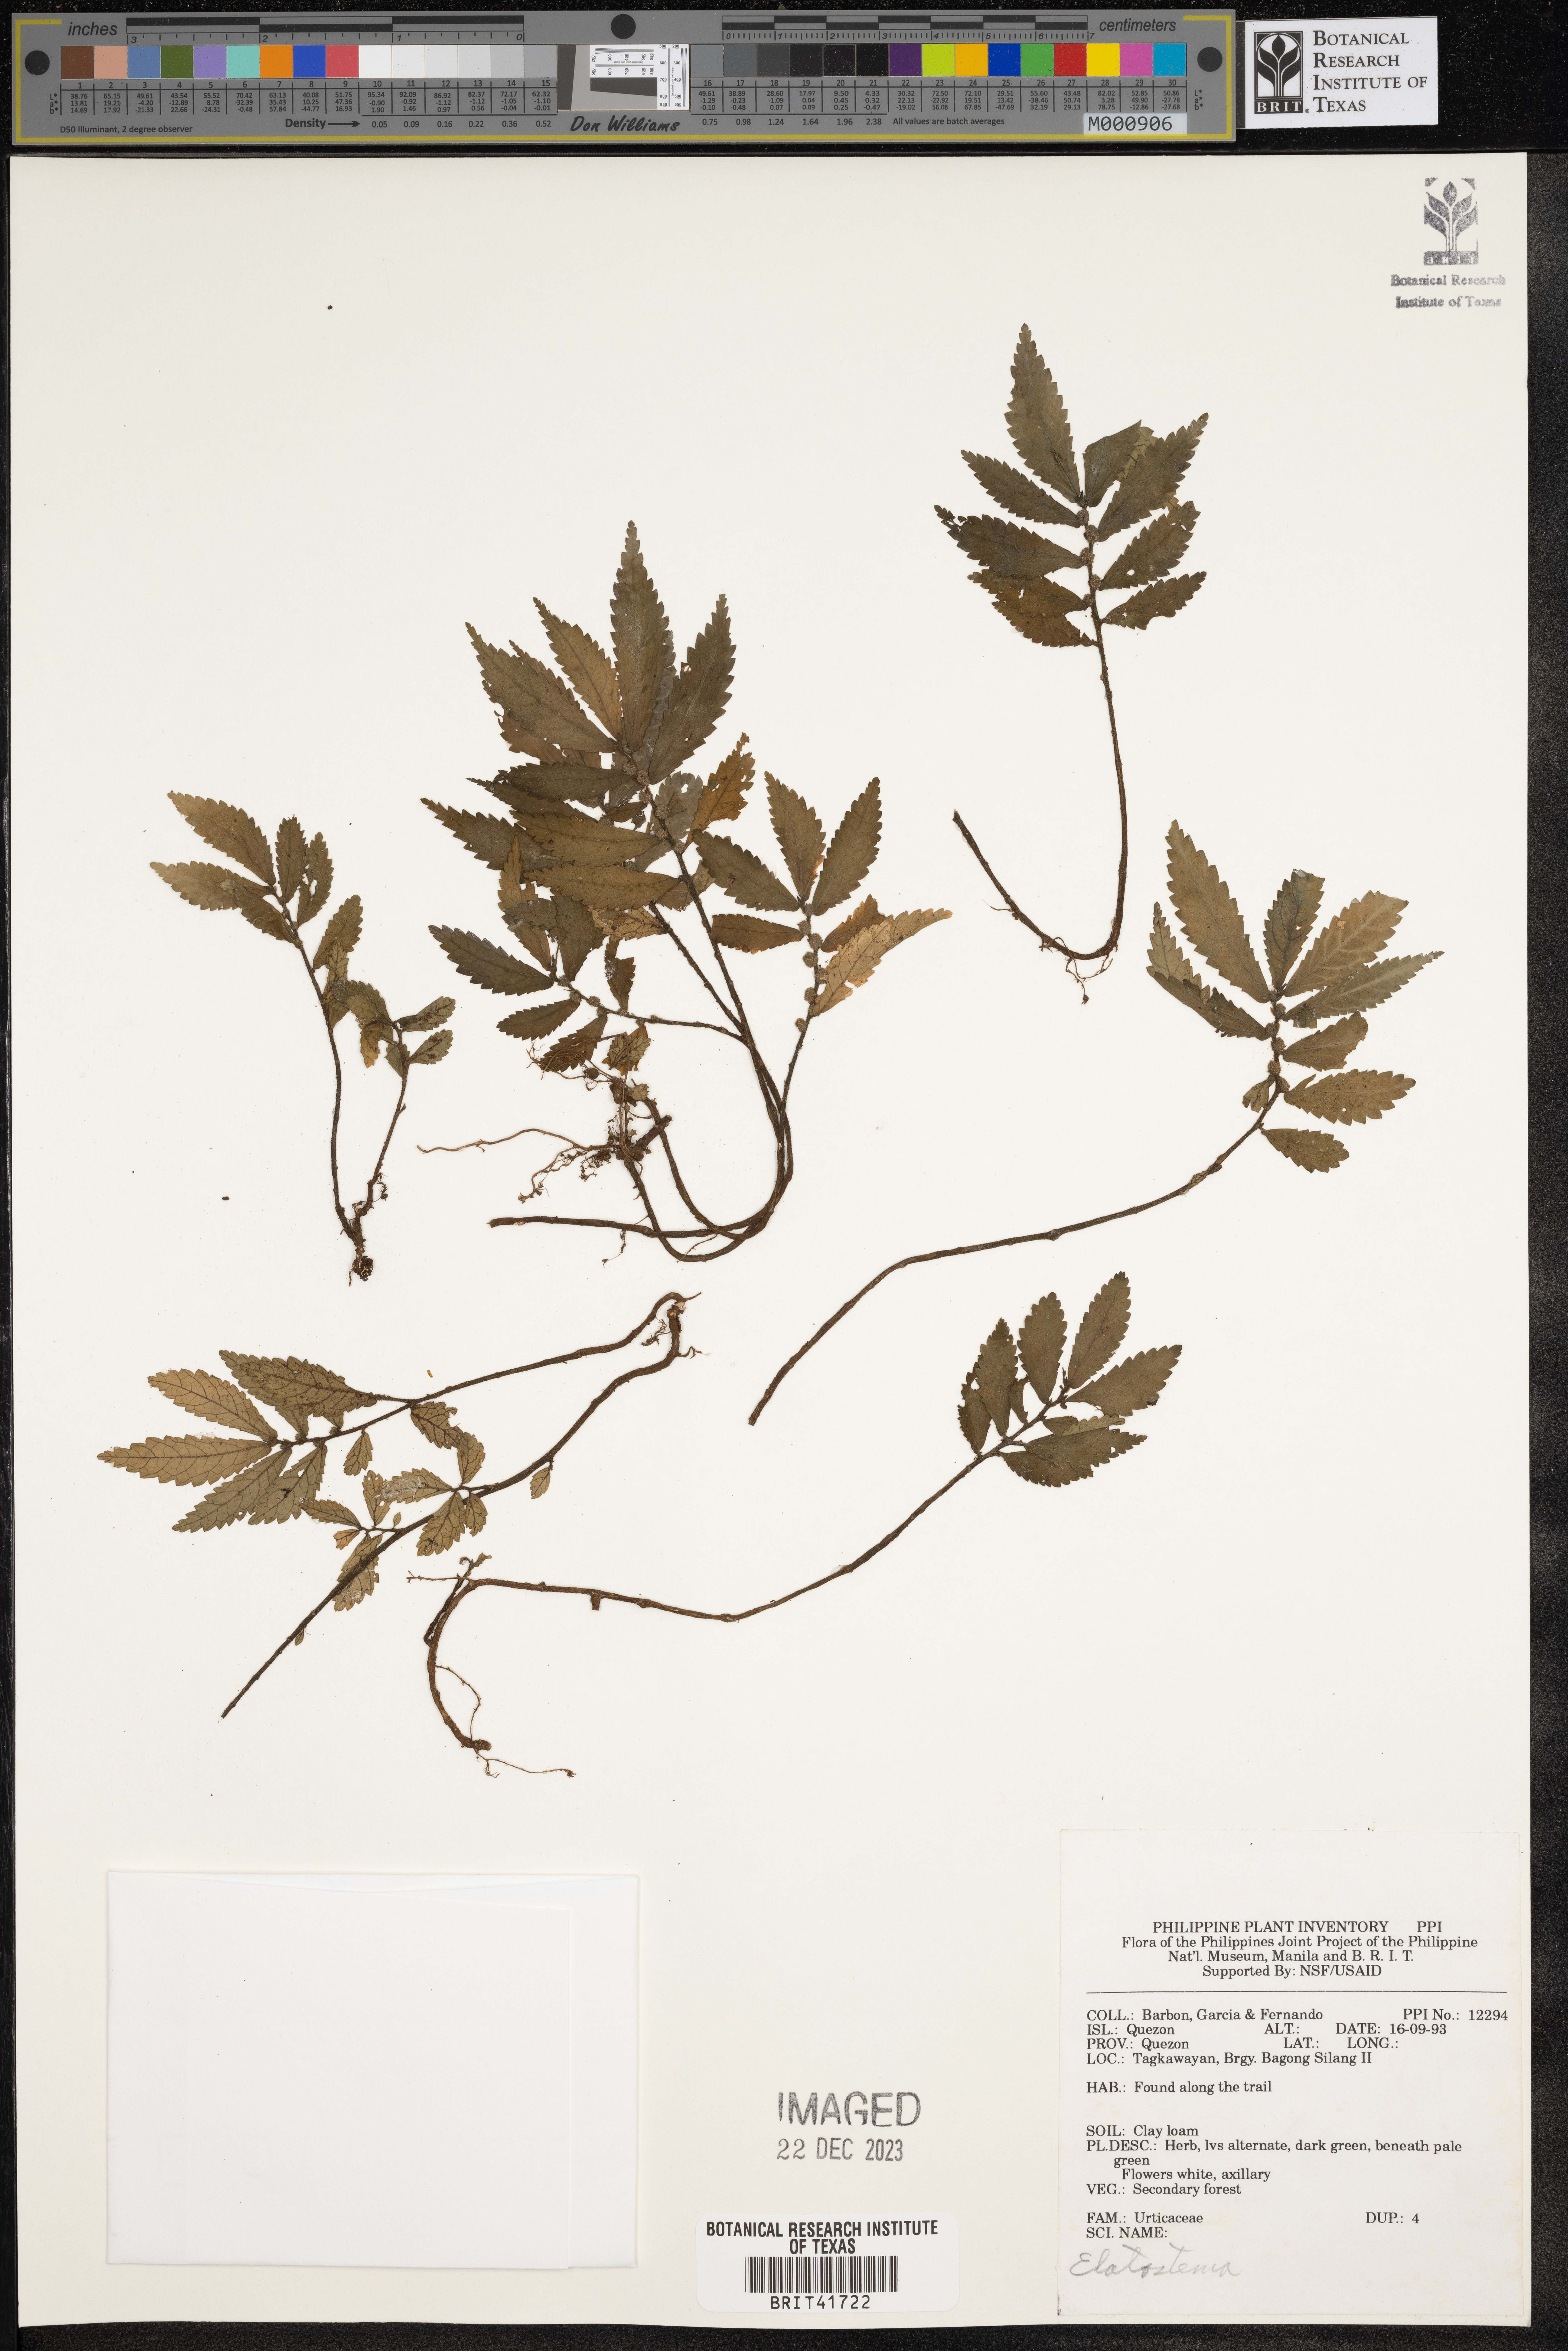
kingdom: Plantae
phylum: Tracheophyta
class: Magnoliopsida
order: Rosales
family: Urticaceae
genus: Elatostema
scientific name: Elatostema
